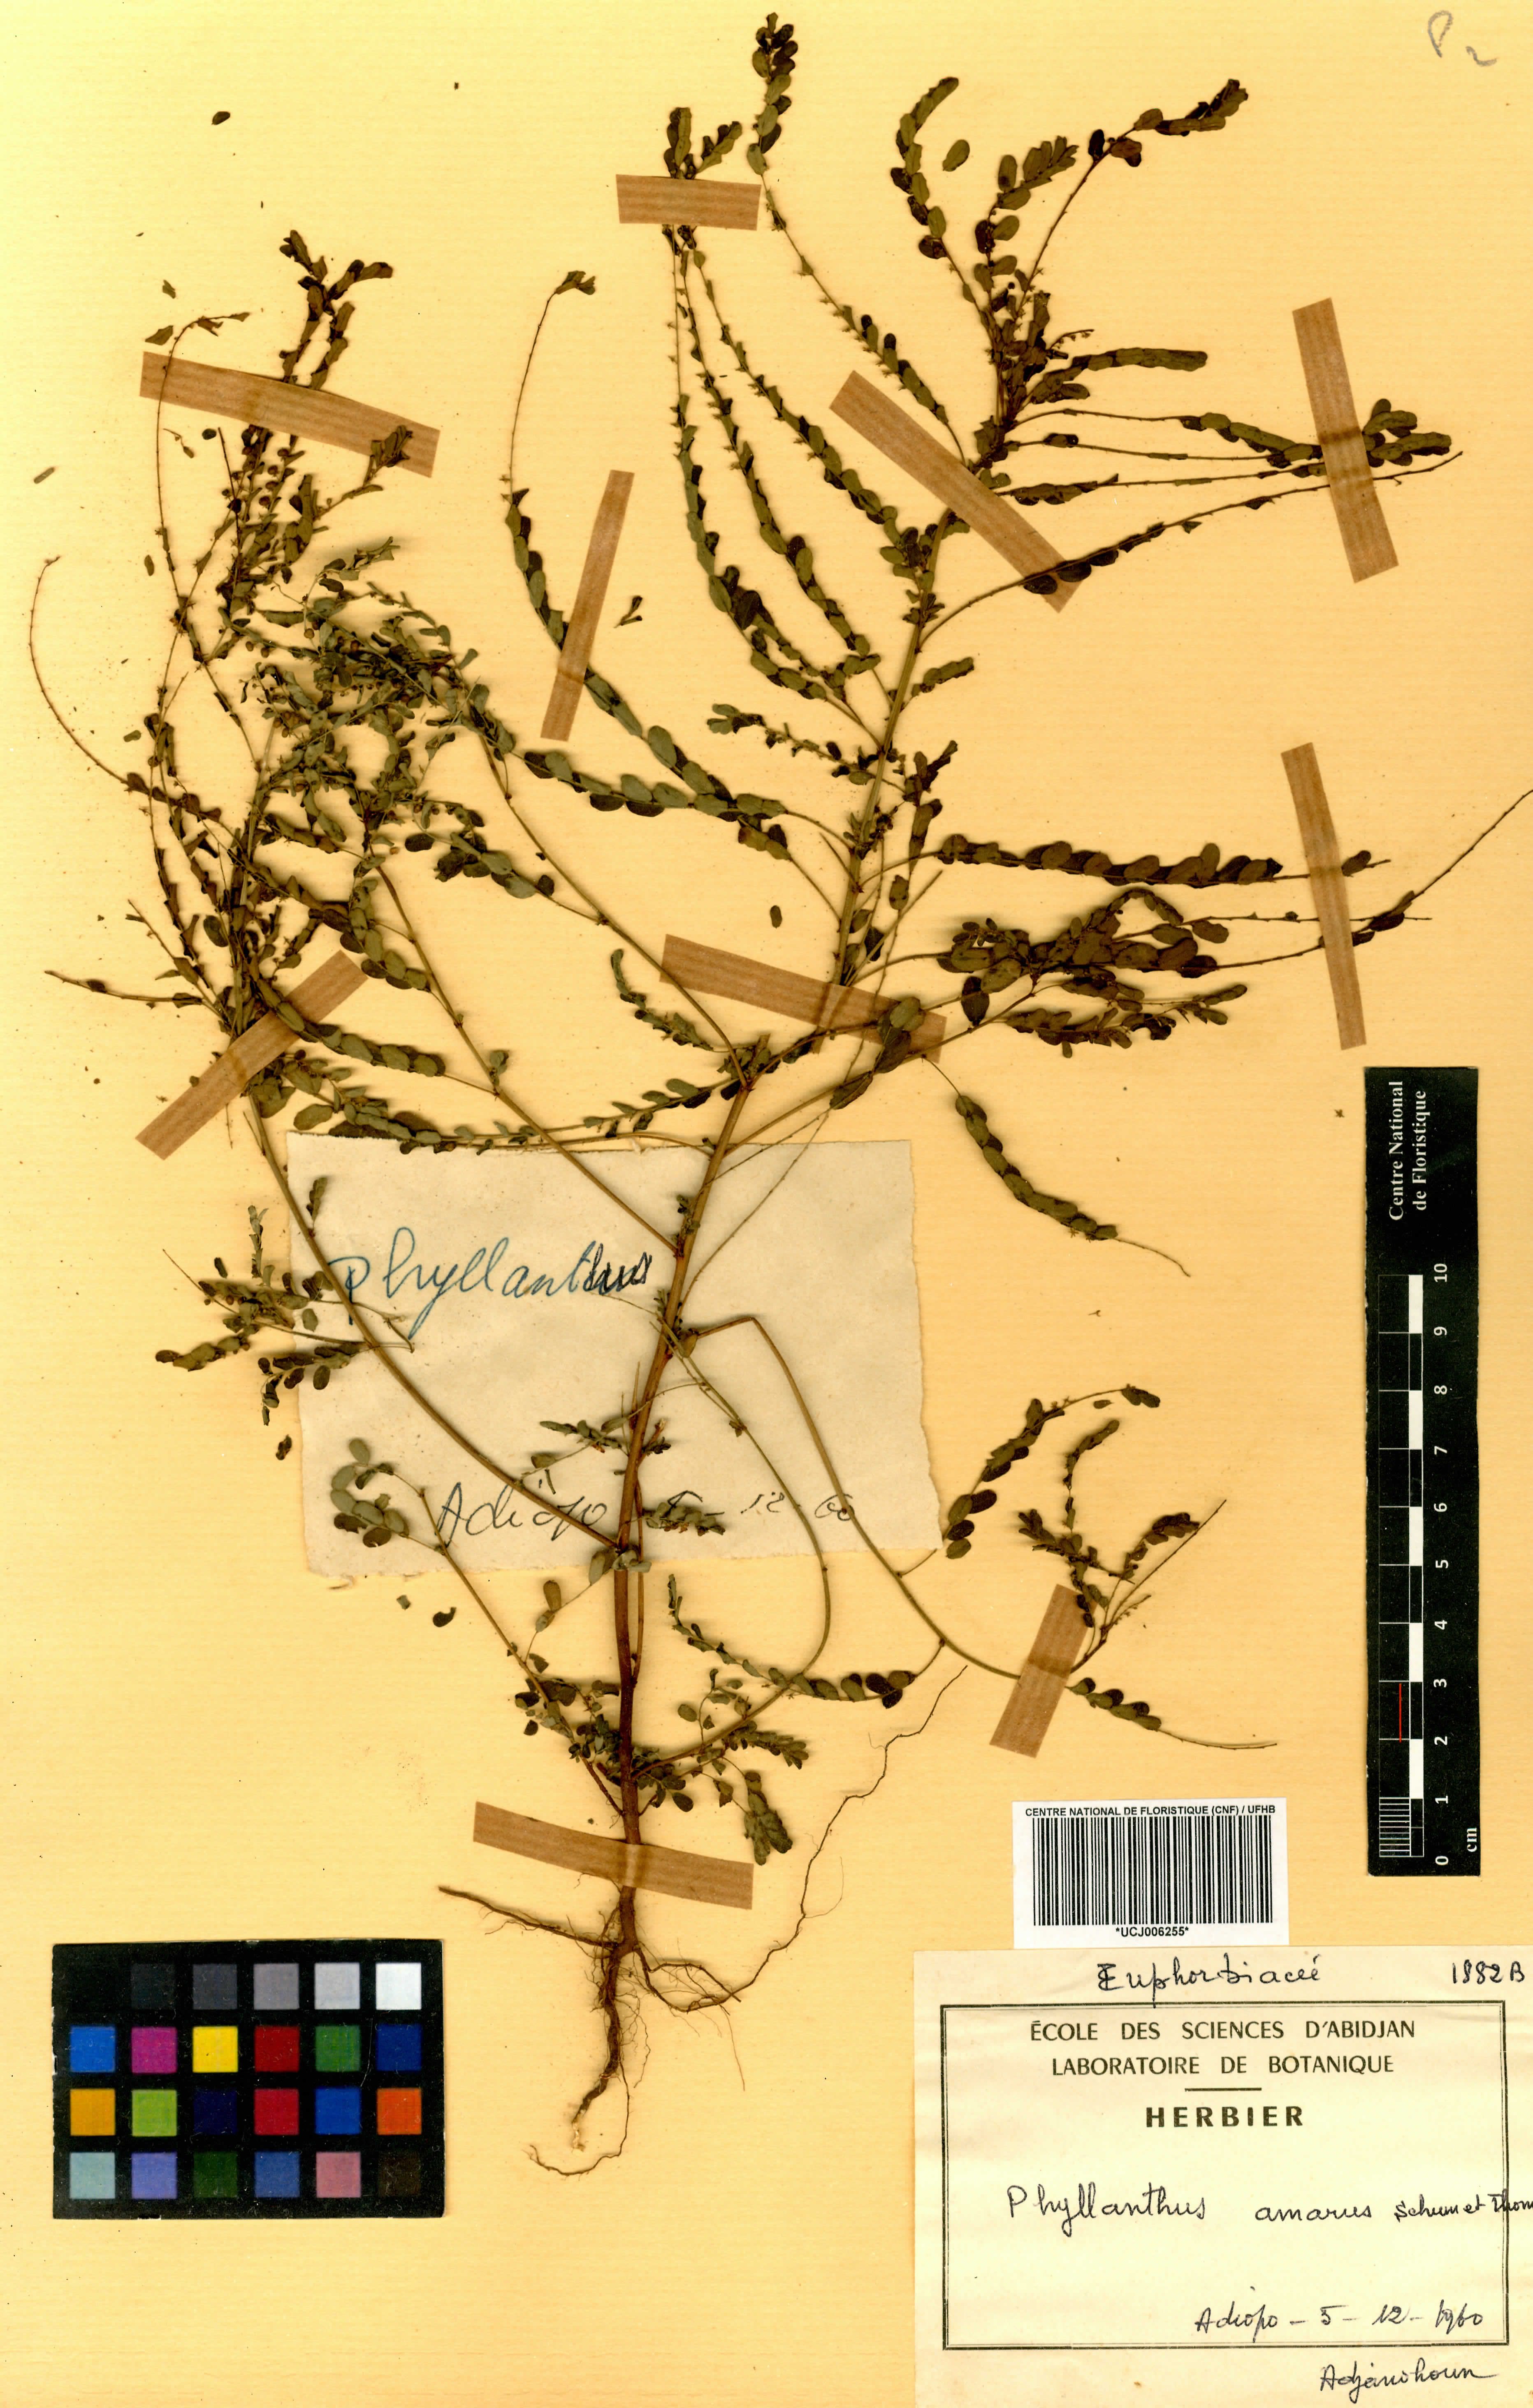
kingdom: Plantae
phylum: Tracheophyta
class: Magnoliopsida
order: Malpighiales
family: Phyllanthaceae
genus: Phyllanthus
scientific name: Phyllanthus amarus
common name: Carry me seed
